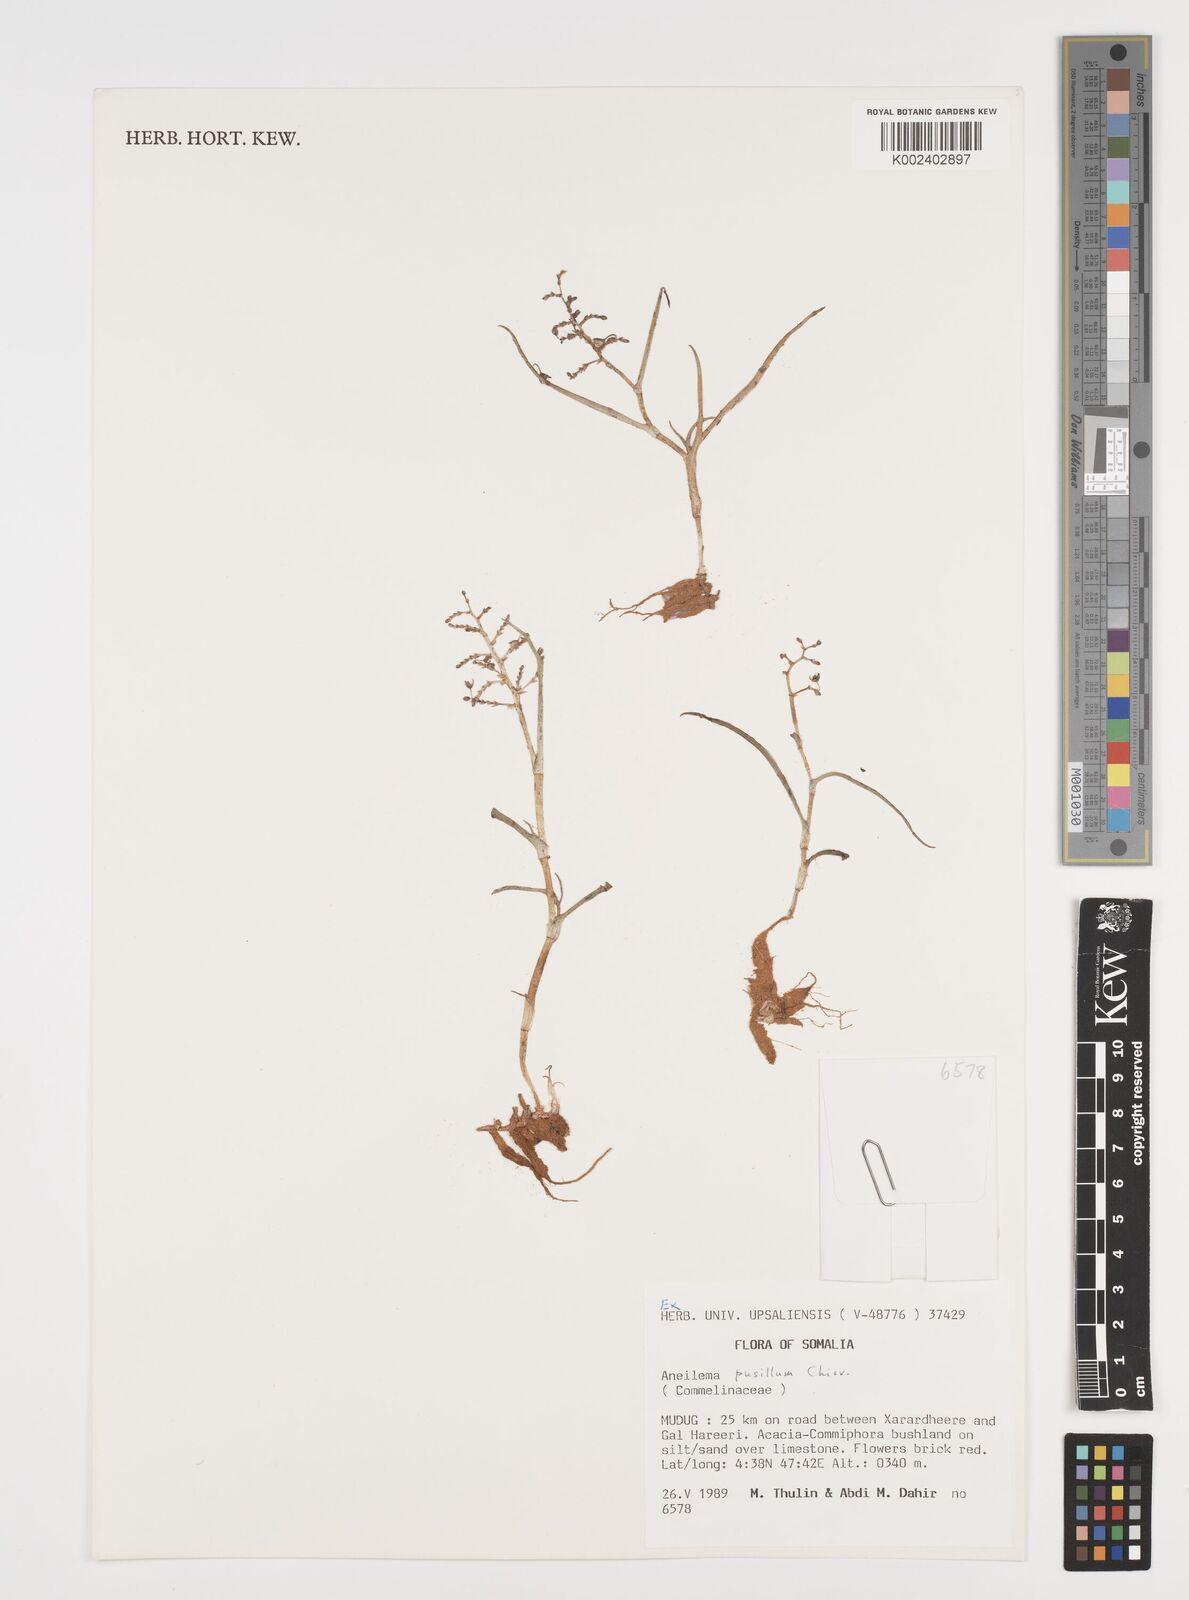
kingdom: Plantae
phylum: Tracheophyta
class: Liliopsida
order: Commelinales
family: Commelinaceae
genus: Aneilema
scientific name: Aneilema pusillum
